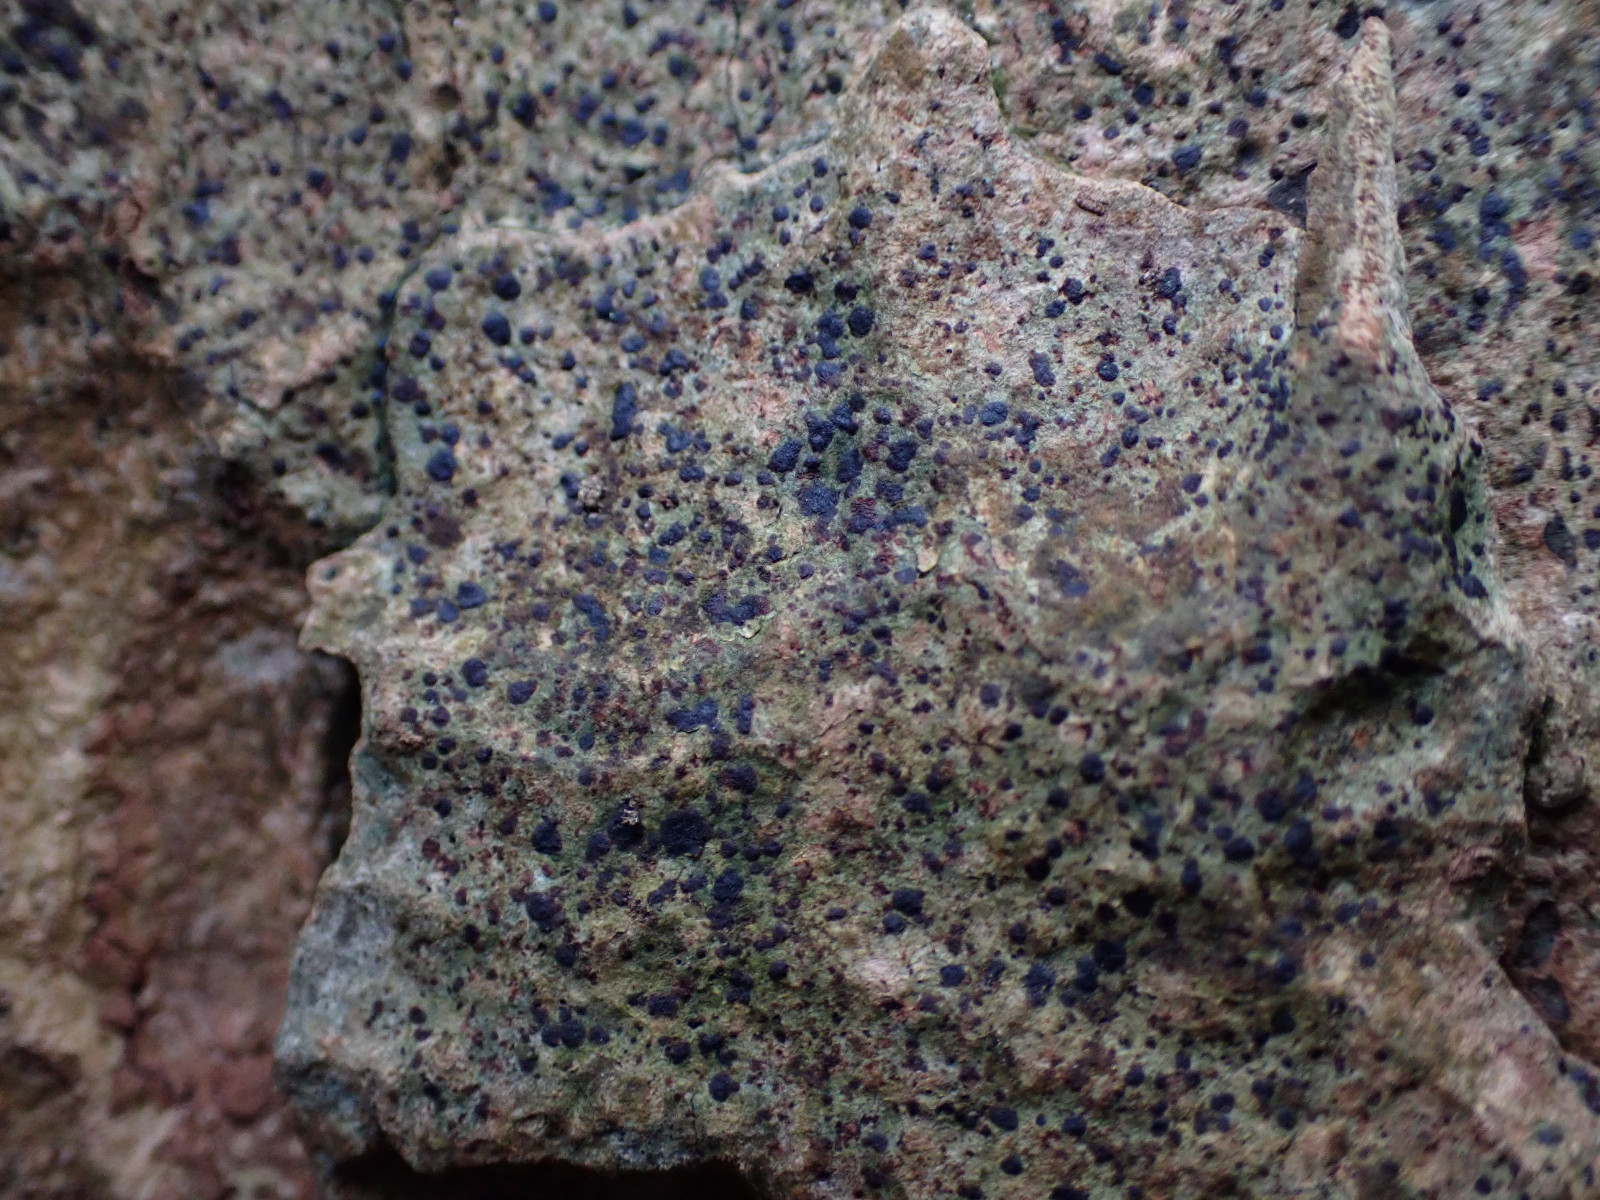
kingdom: Fungi
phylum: Ascomycota
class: Arthoniomycetes
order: Arthoniales
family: Arthoniaceae
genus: Diarthonis
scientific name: Diarthonis spadicea
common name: skygge-pletlav
